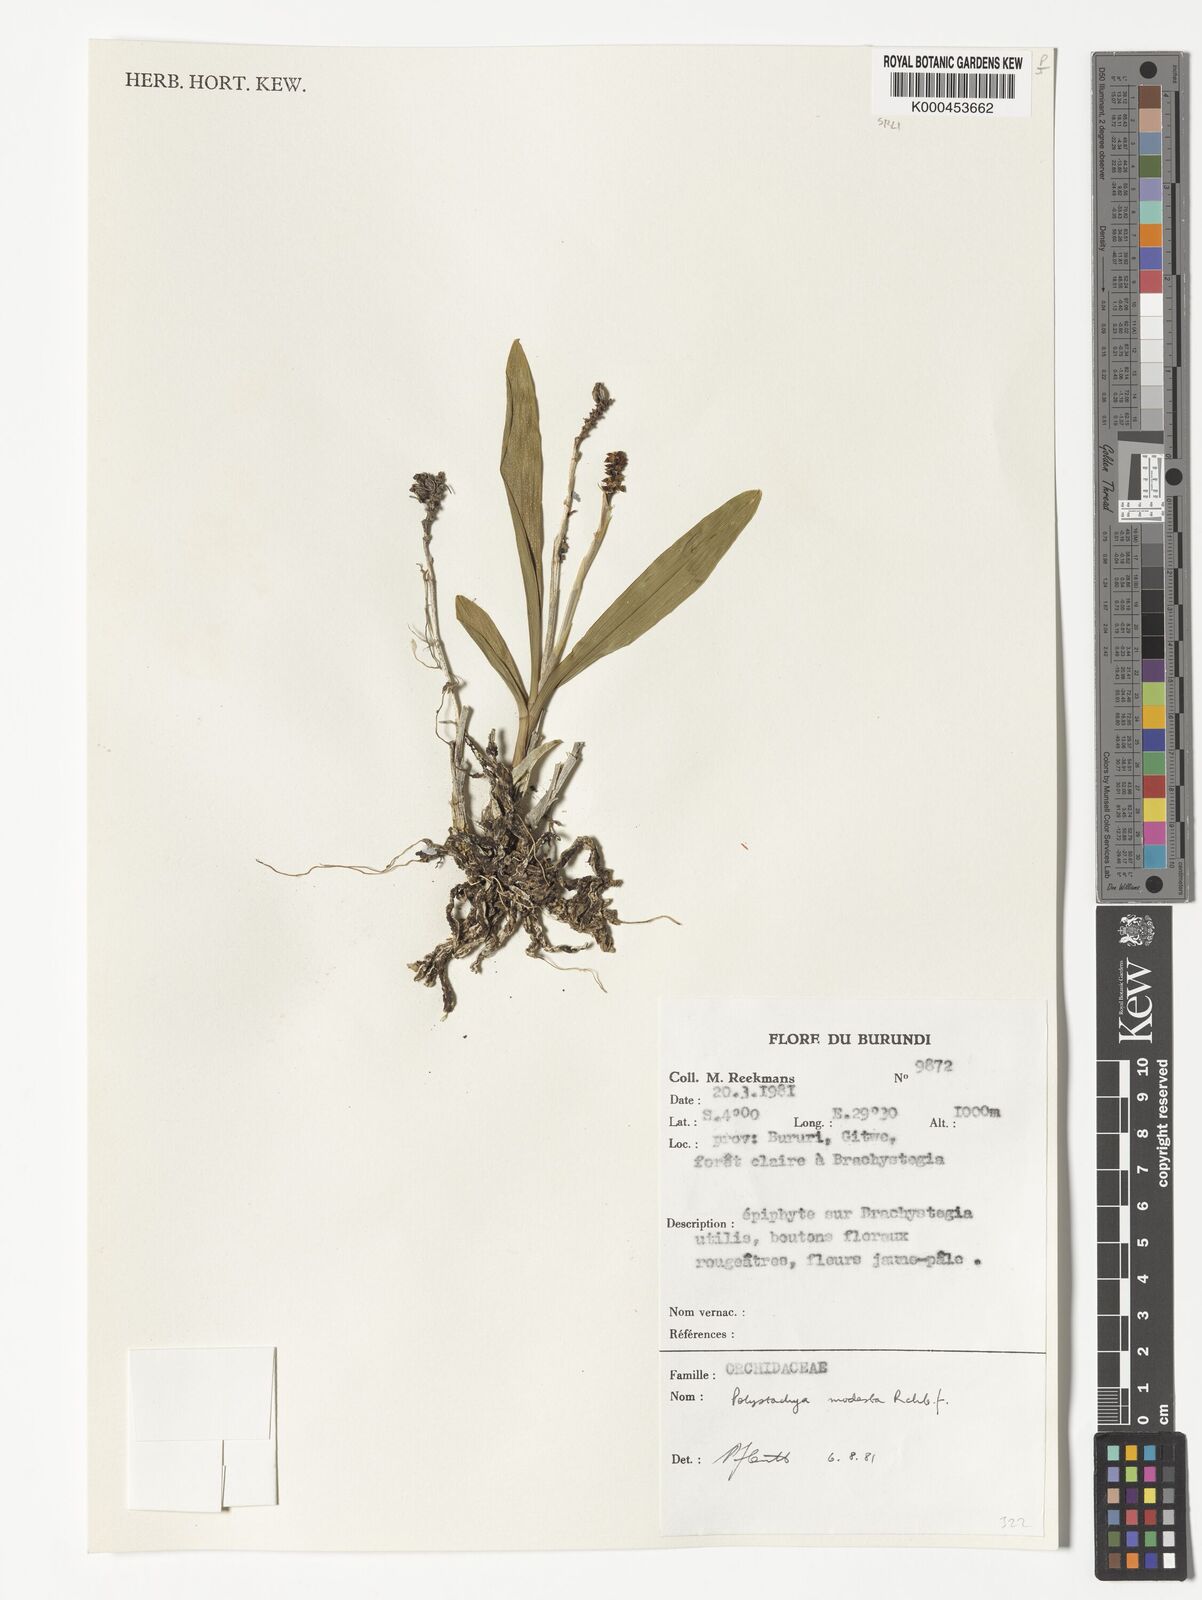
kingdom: Plantae
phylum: Tracheophyta
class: Liliopsida
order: Asparagales
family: Orchidaceae
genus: Polystachya
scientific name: Polystachya modesta
